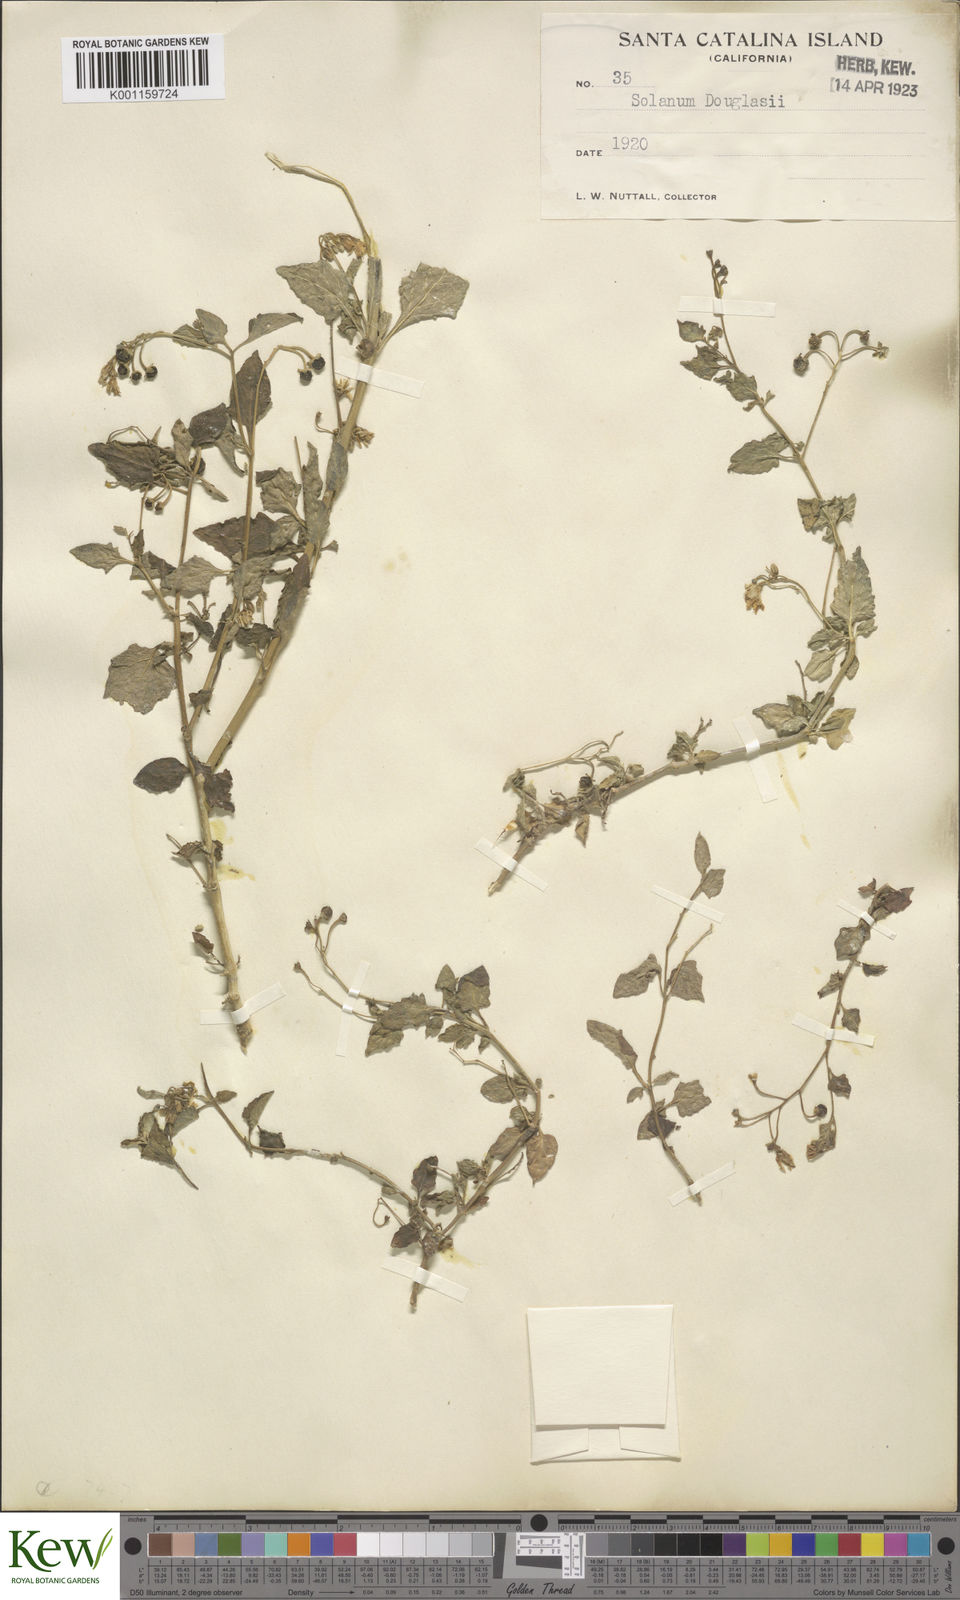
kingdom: Plantae
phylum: Tracheophyta
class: Magnoliopsida
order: Solanales
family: Solanaceae
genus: Solanum
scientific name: Solanum douglasii
